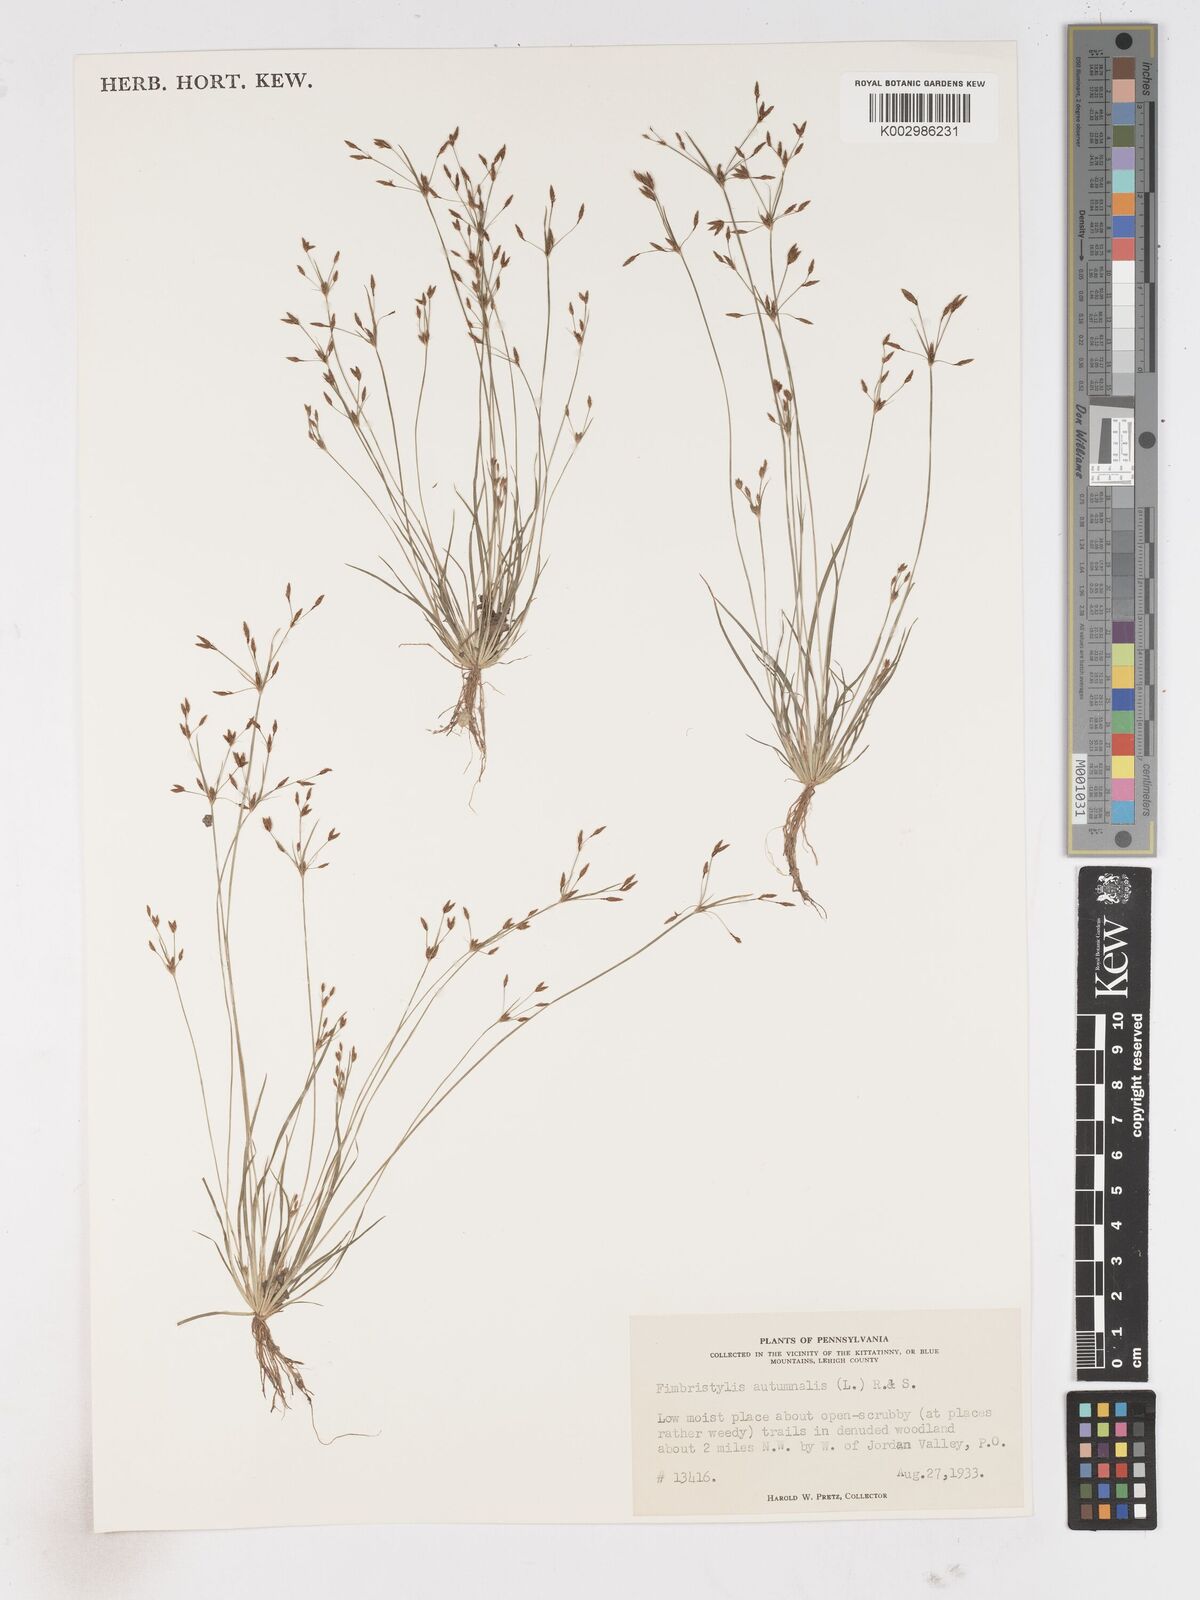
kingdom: Plantae
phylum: Tracheophyta
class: Liliopsida
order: Poales
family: Cyperaceae
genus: Fimbristylis
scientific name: Fimbristylis autumnalis
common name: Slender fimbristylis
